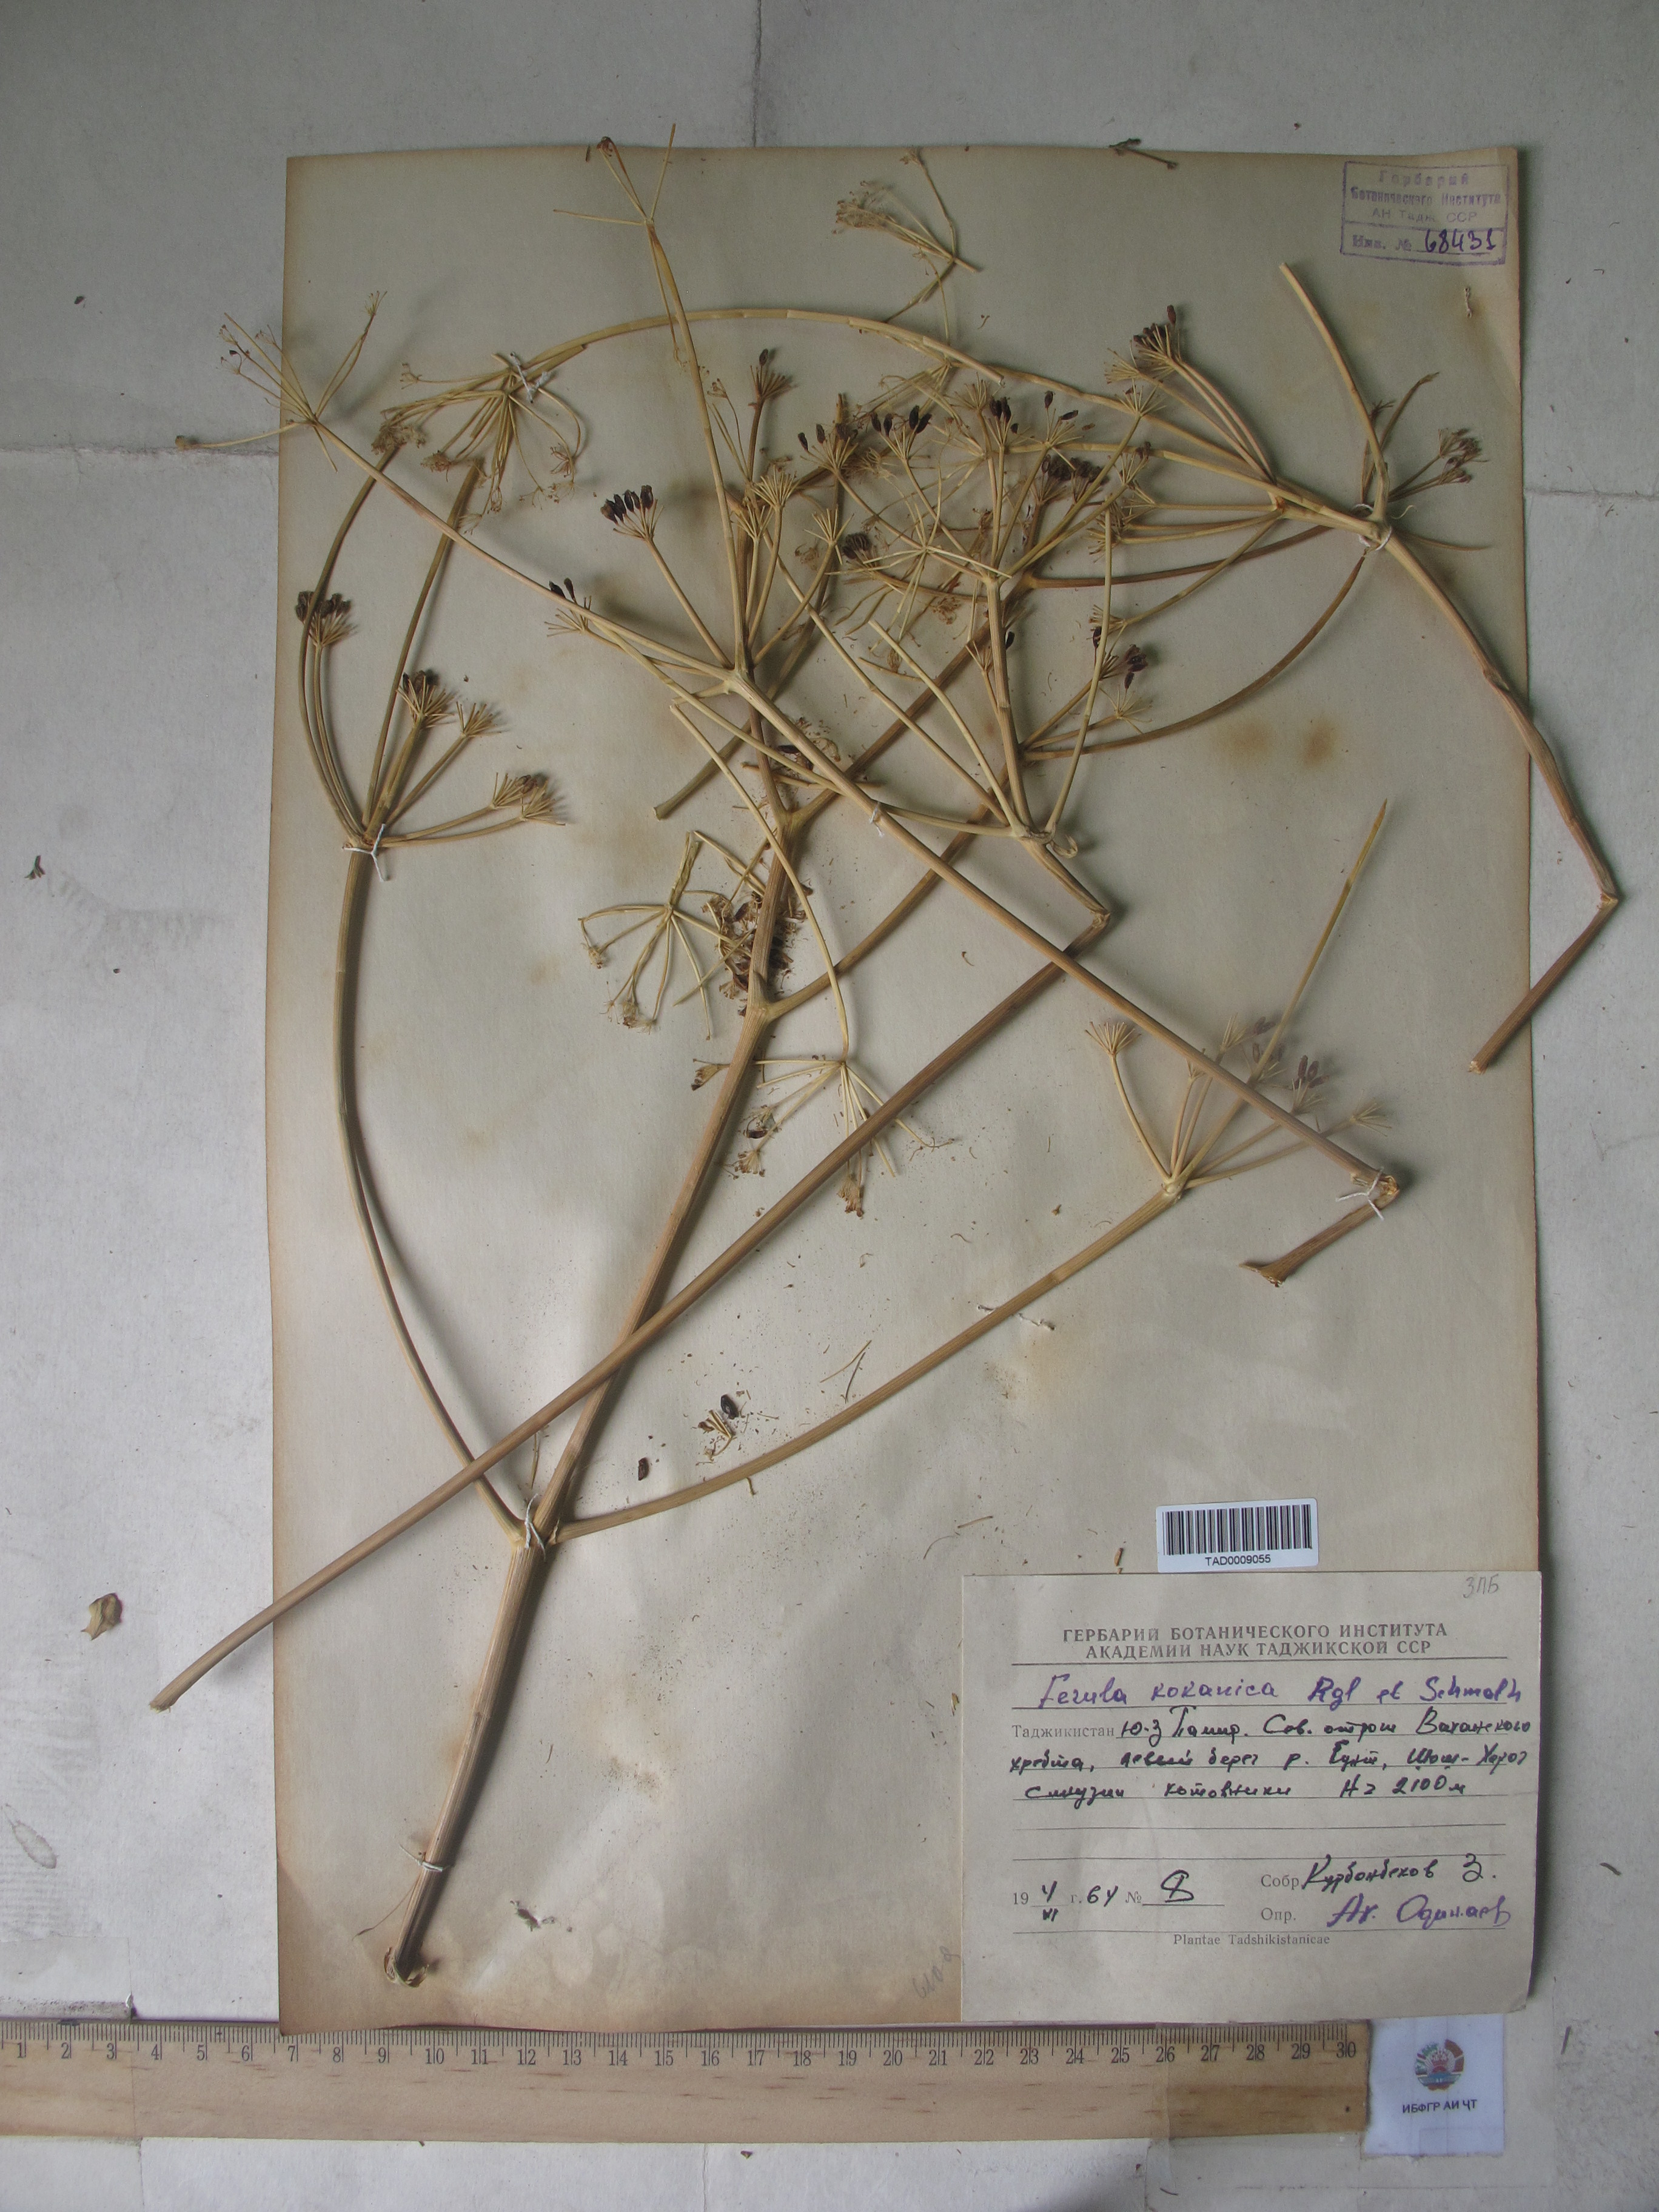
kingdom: Plantae
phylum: Tracheophyta
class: Magnoliopsida
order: Apiales
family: Apiaceae
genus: Ferula
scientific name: Ferula kokanica
